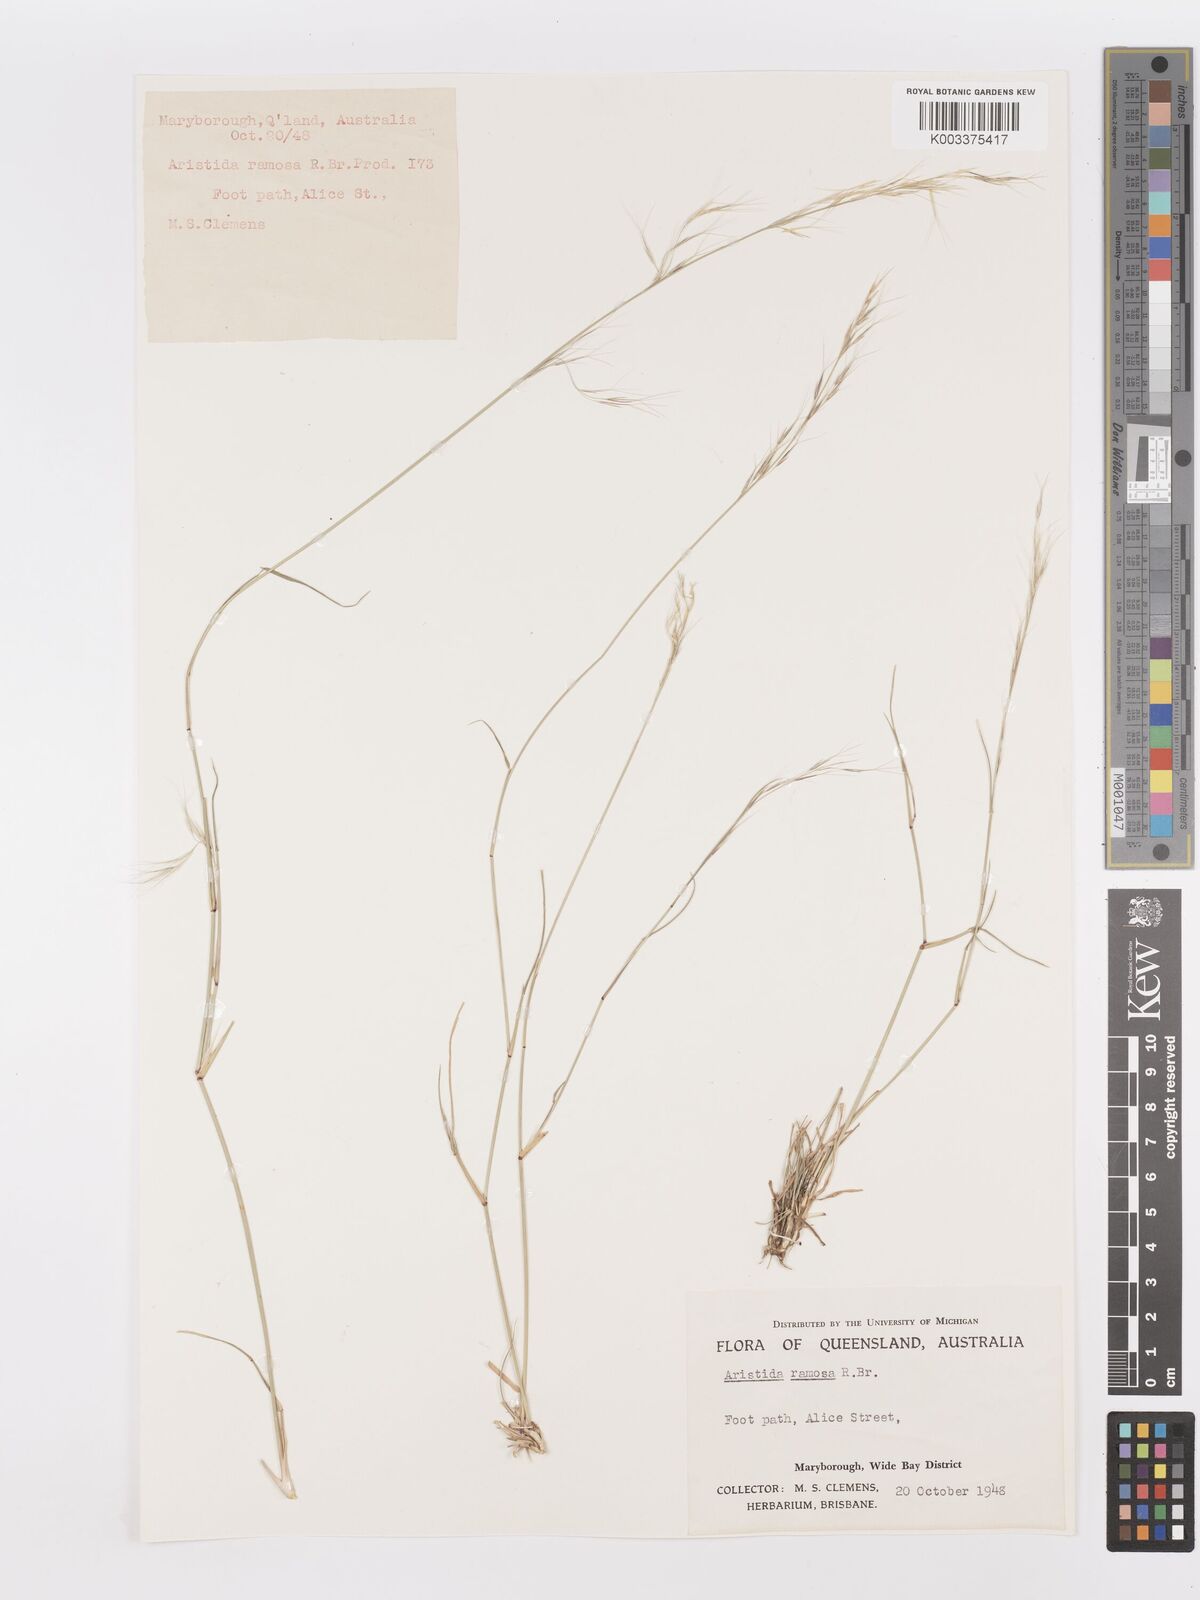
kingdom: Plantae
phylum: Tracheophyta
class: Liliopsida
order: Poales
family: Poaceae
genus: Aristida
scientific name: Aristida ramosa
